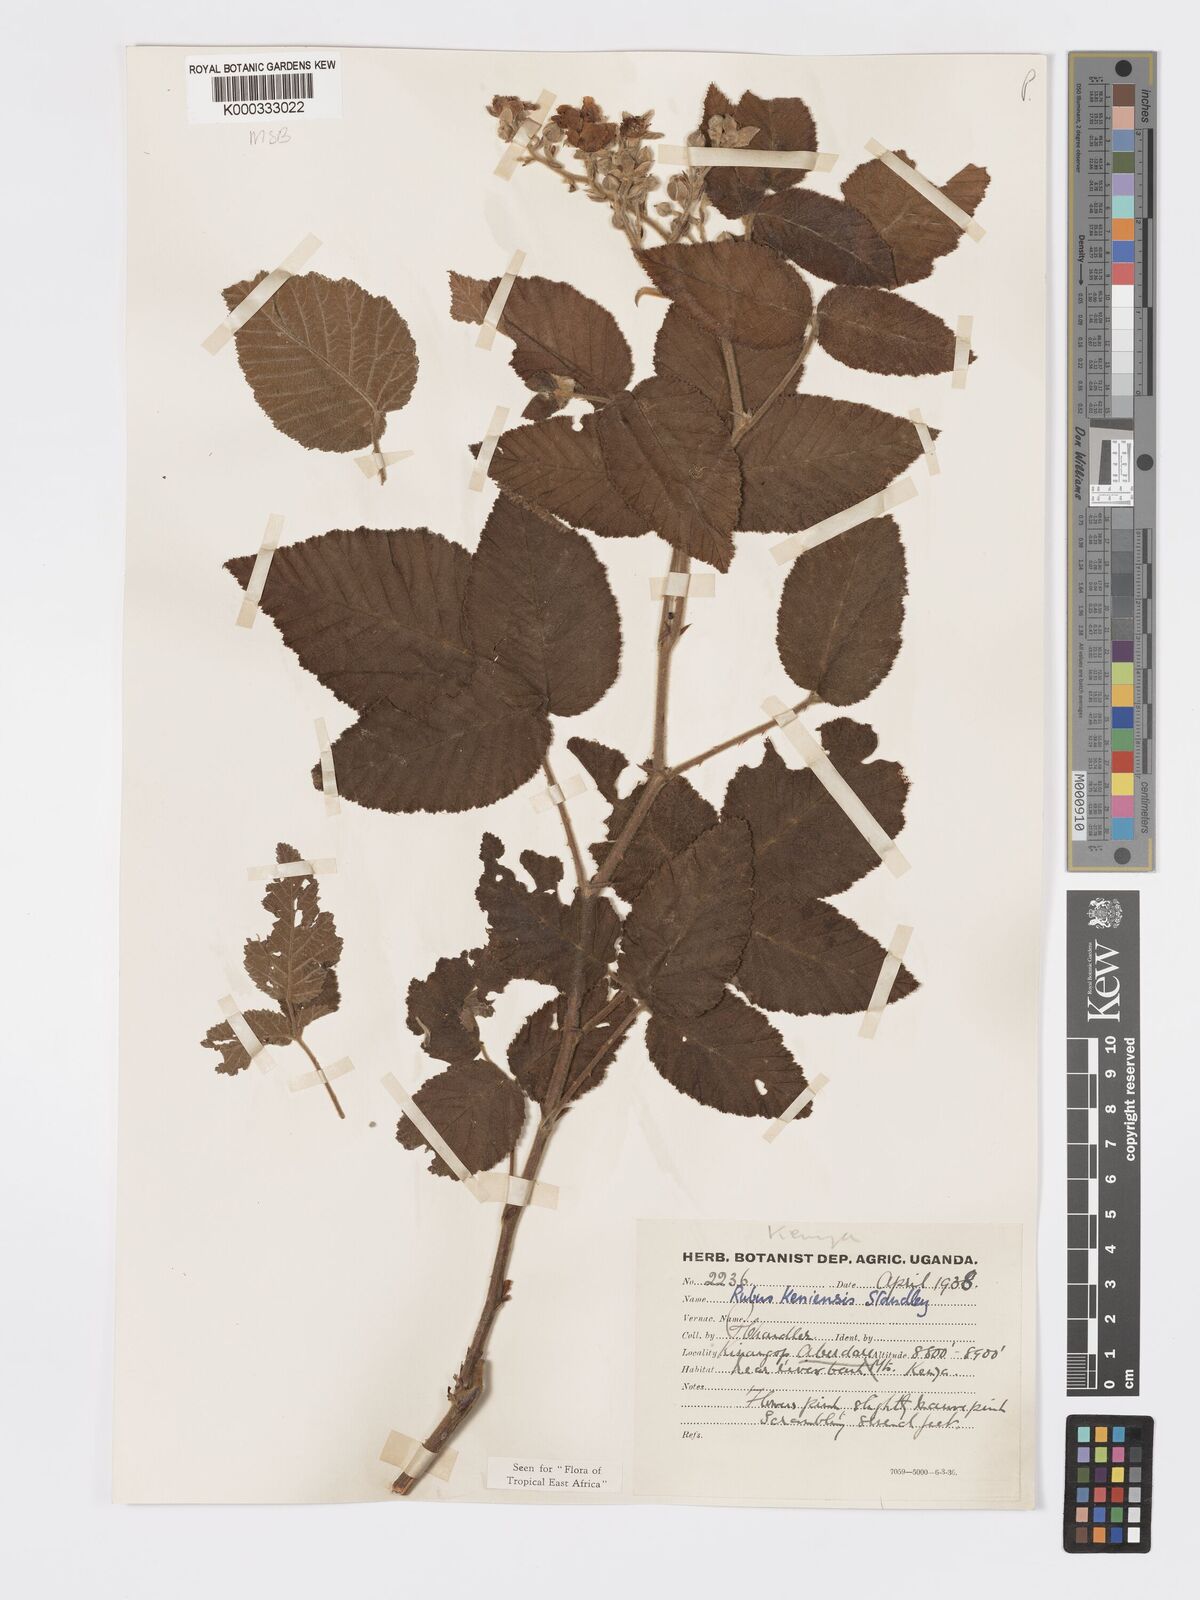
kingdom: Plantae
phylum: Tracheophyta
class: Magnoliopsida
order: Rosales
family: Rosaceae
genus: Rubus
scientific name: Rubus keniensis
